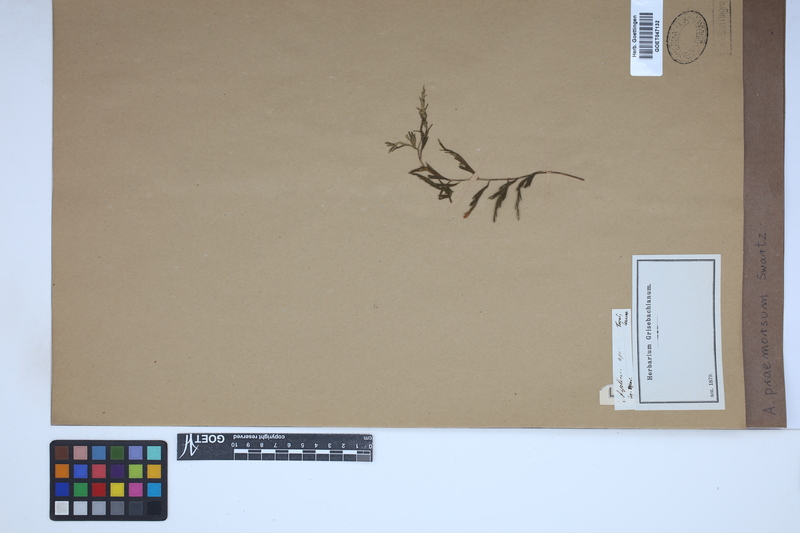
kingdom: Plantae
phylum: Tracheophyta
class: Polypodiopsida
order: Polypodiales
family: Aspleniaceae
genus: Asplenium
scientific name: Asplenium praemorsum
